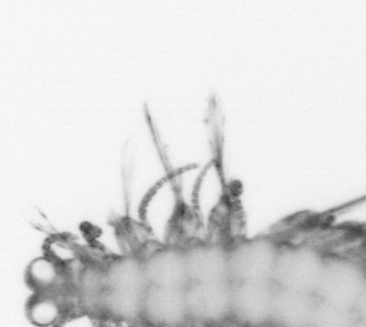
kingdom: Animalia
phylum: Annelida
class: Polychaeta
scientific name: Polychaeta
